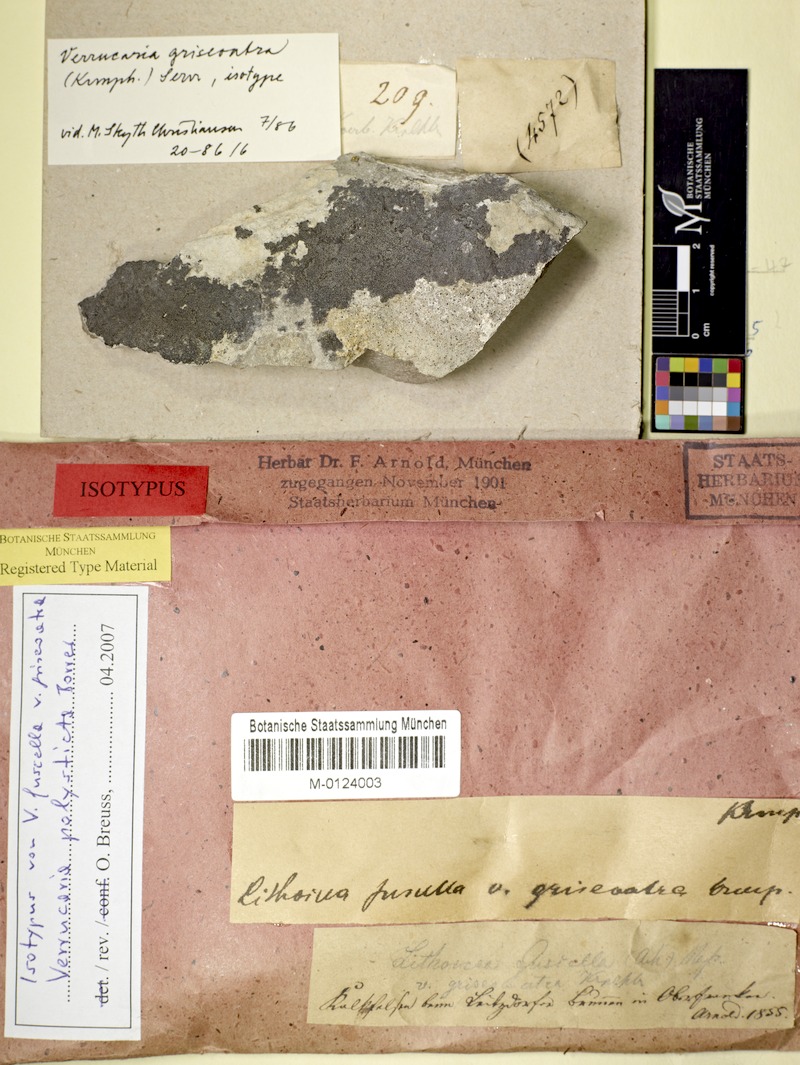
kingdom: Fungi
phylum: Ascomycota
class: Eurotiomycetes
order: Verrucariales
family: Verrucariaceae
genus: Verrucaria
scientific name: Verrucaria polysticta
